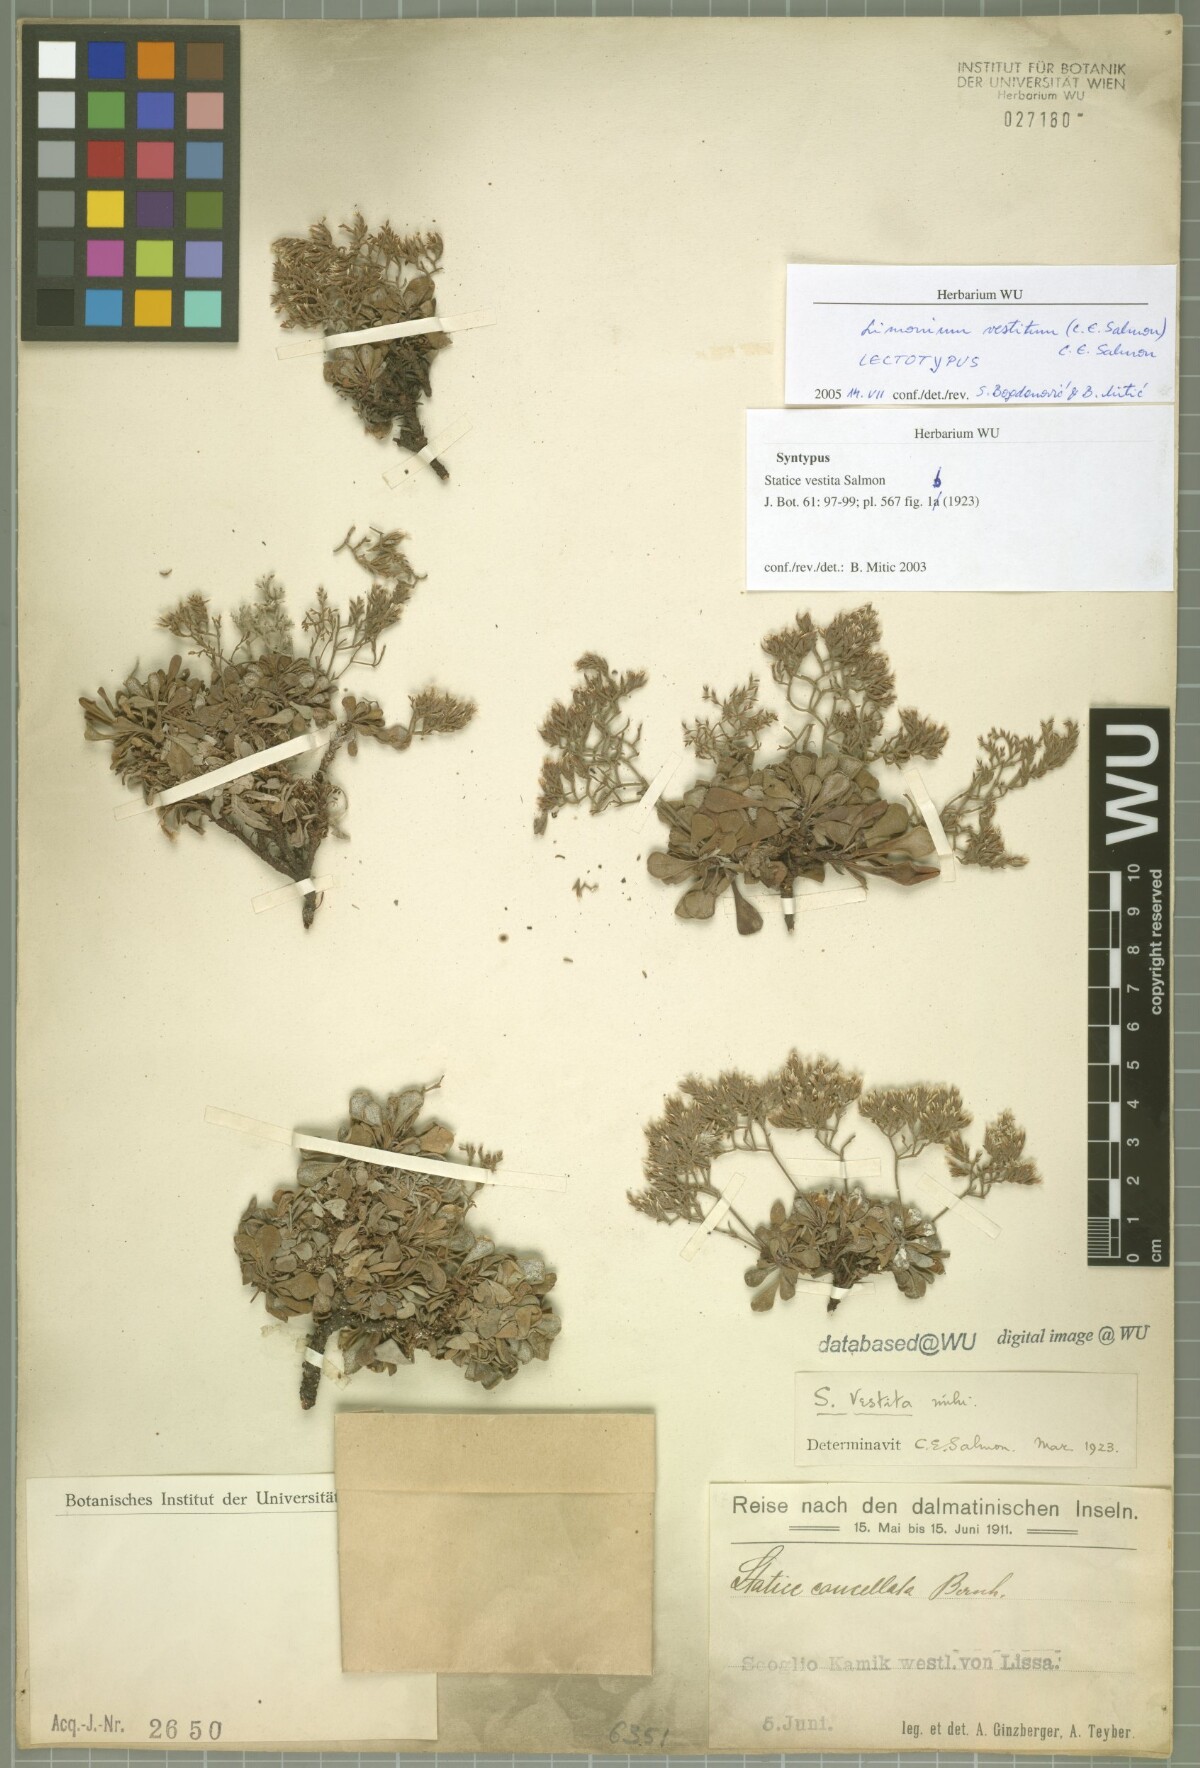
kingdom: Plantae
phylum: Tracheophyta
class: Magnoliopsida
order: Caryophyllales
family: Plumbaginaceae
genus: Limonium
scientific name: Limonium vestitum
